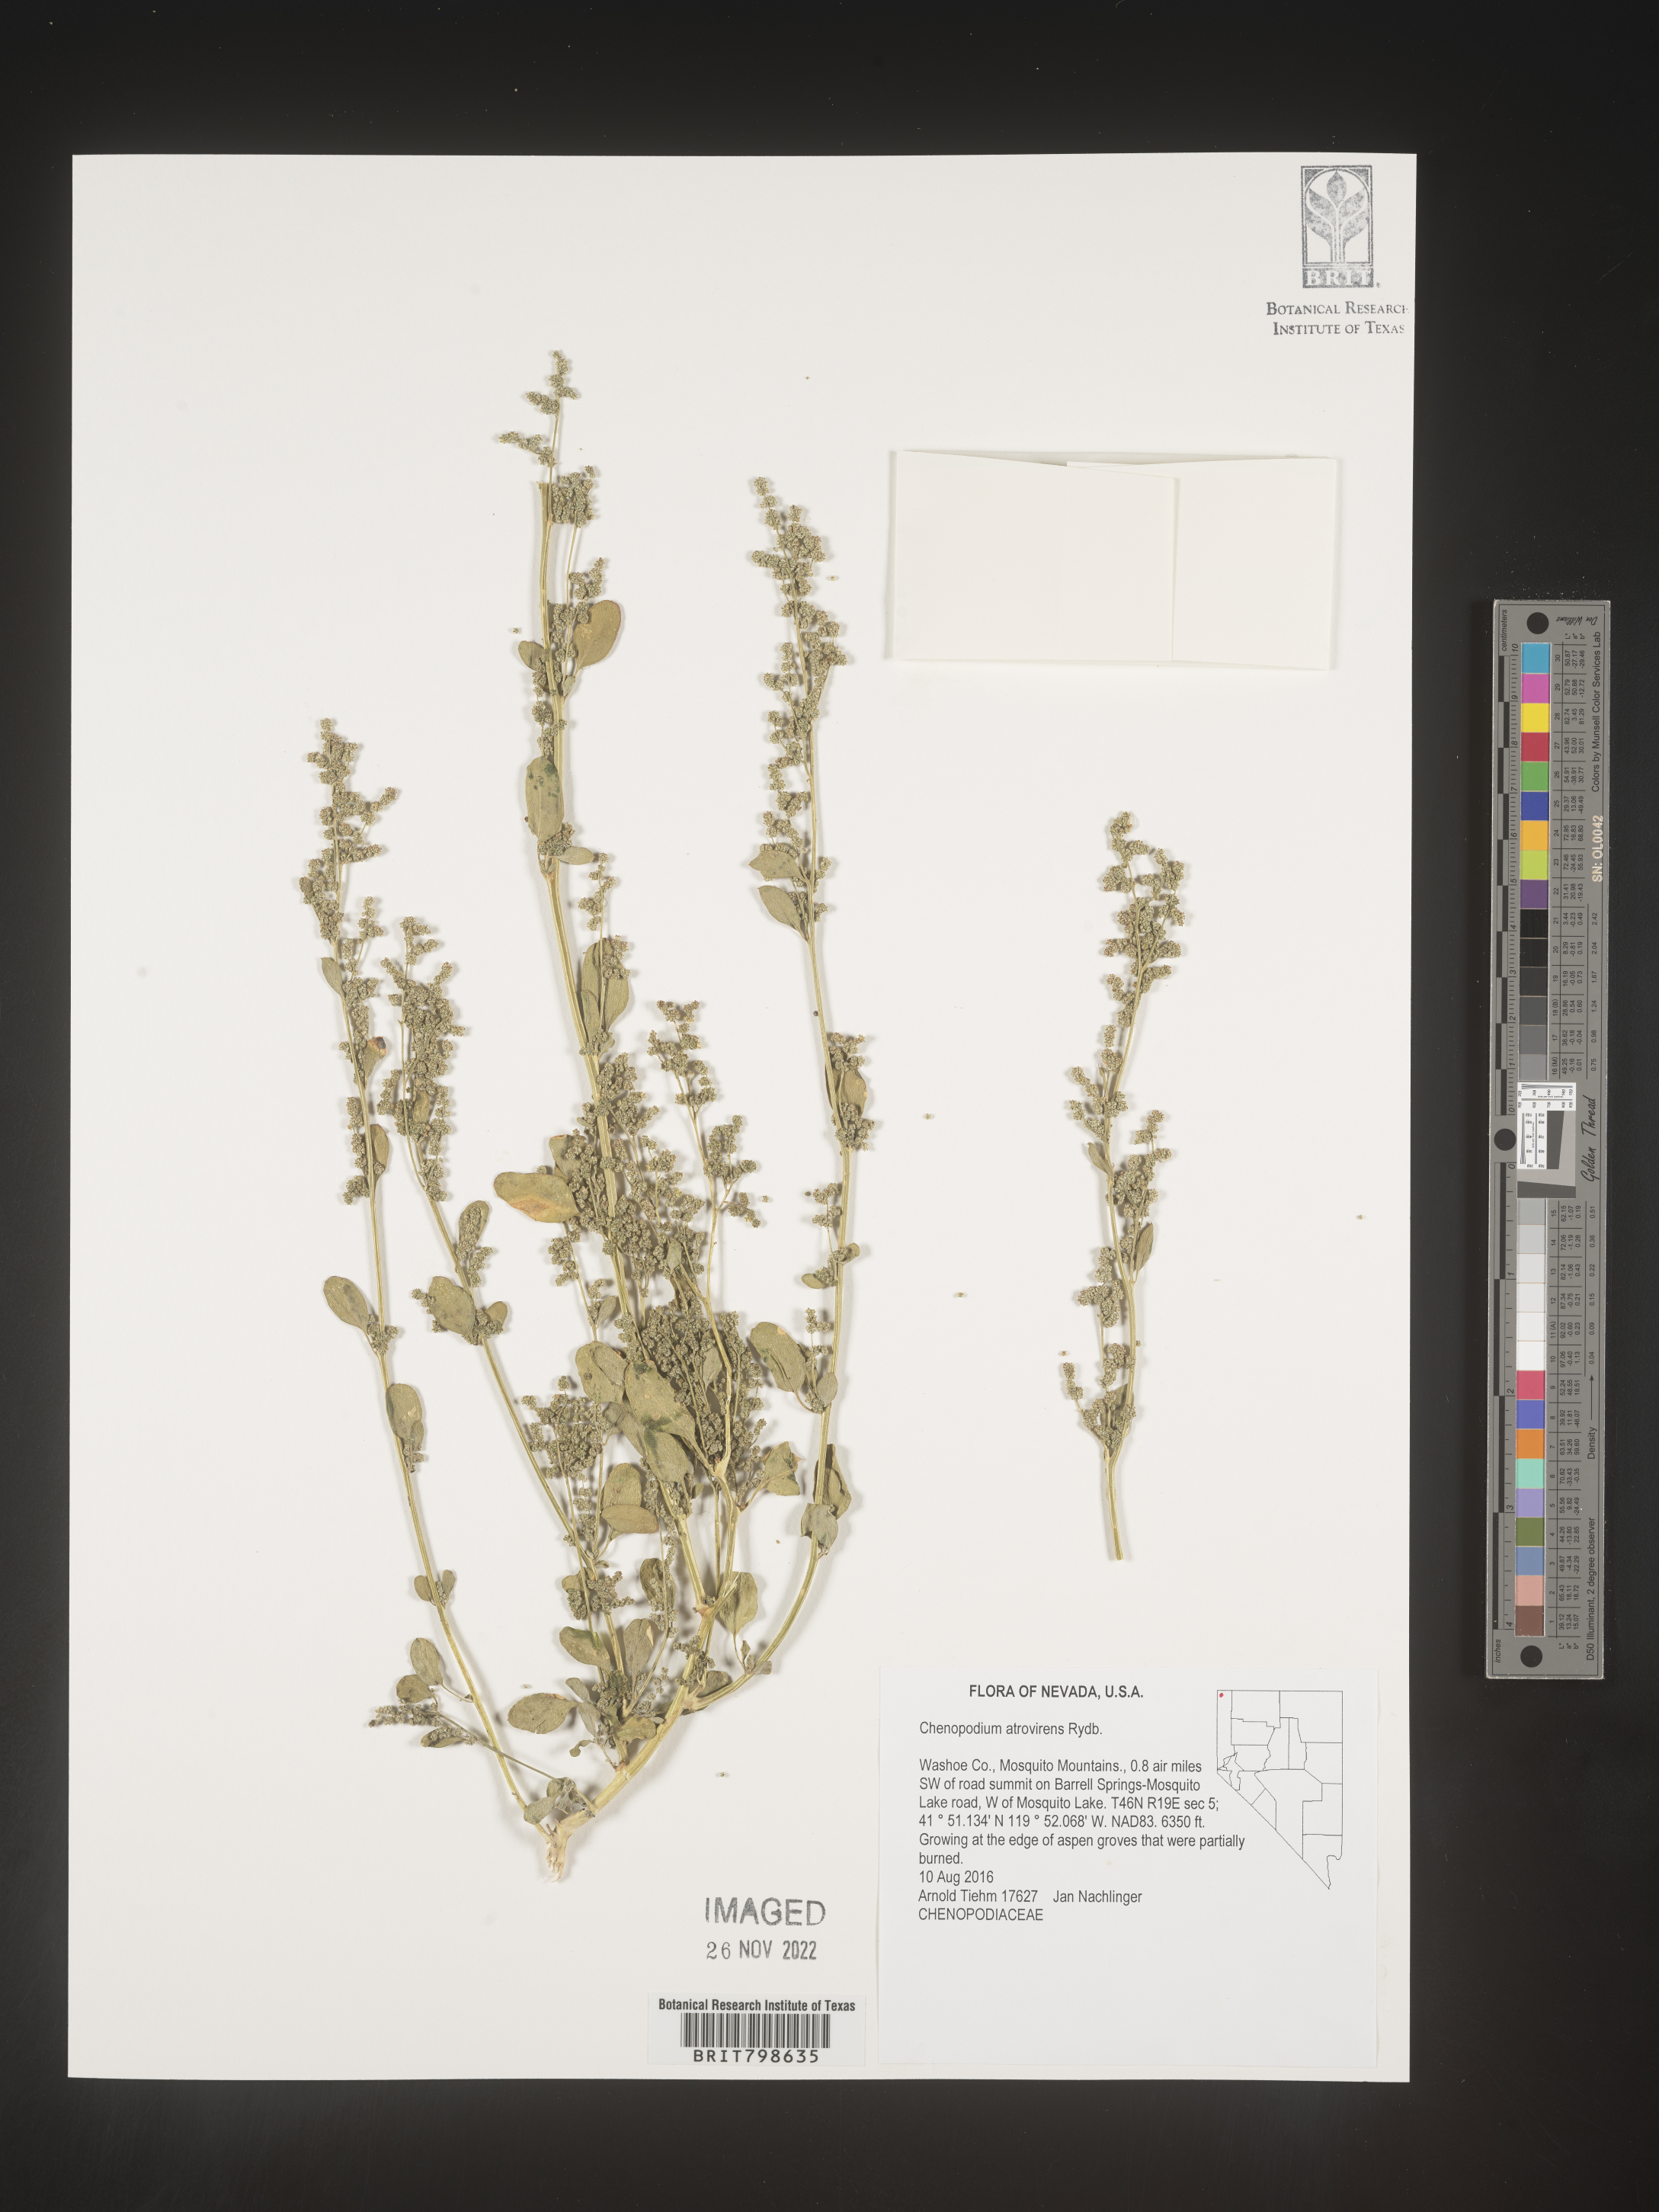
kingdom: Plantae
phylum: Tracheophyta
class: Magnoliopsida
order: Caryophyllales
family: Amaranthaceae
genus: Chenopodium
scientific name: Chenopodium atrovirens
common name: Dark goosefoot
